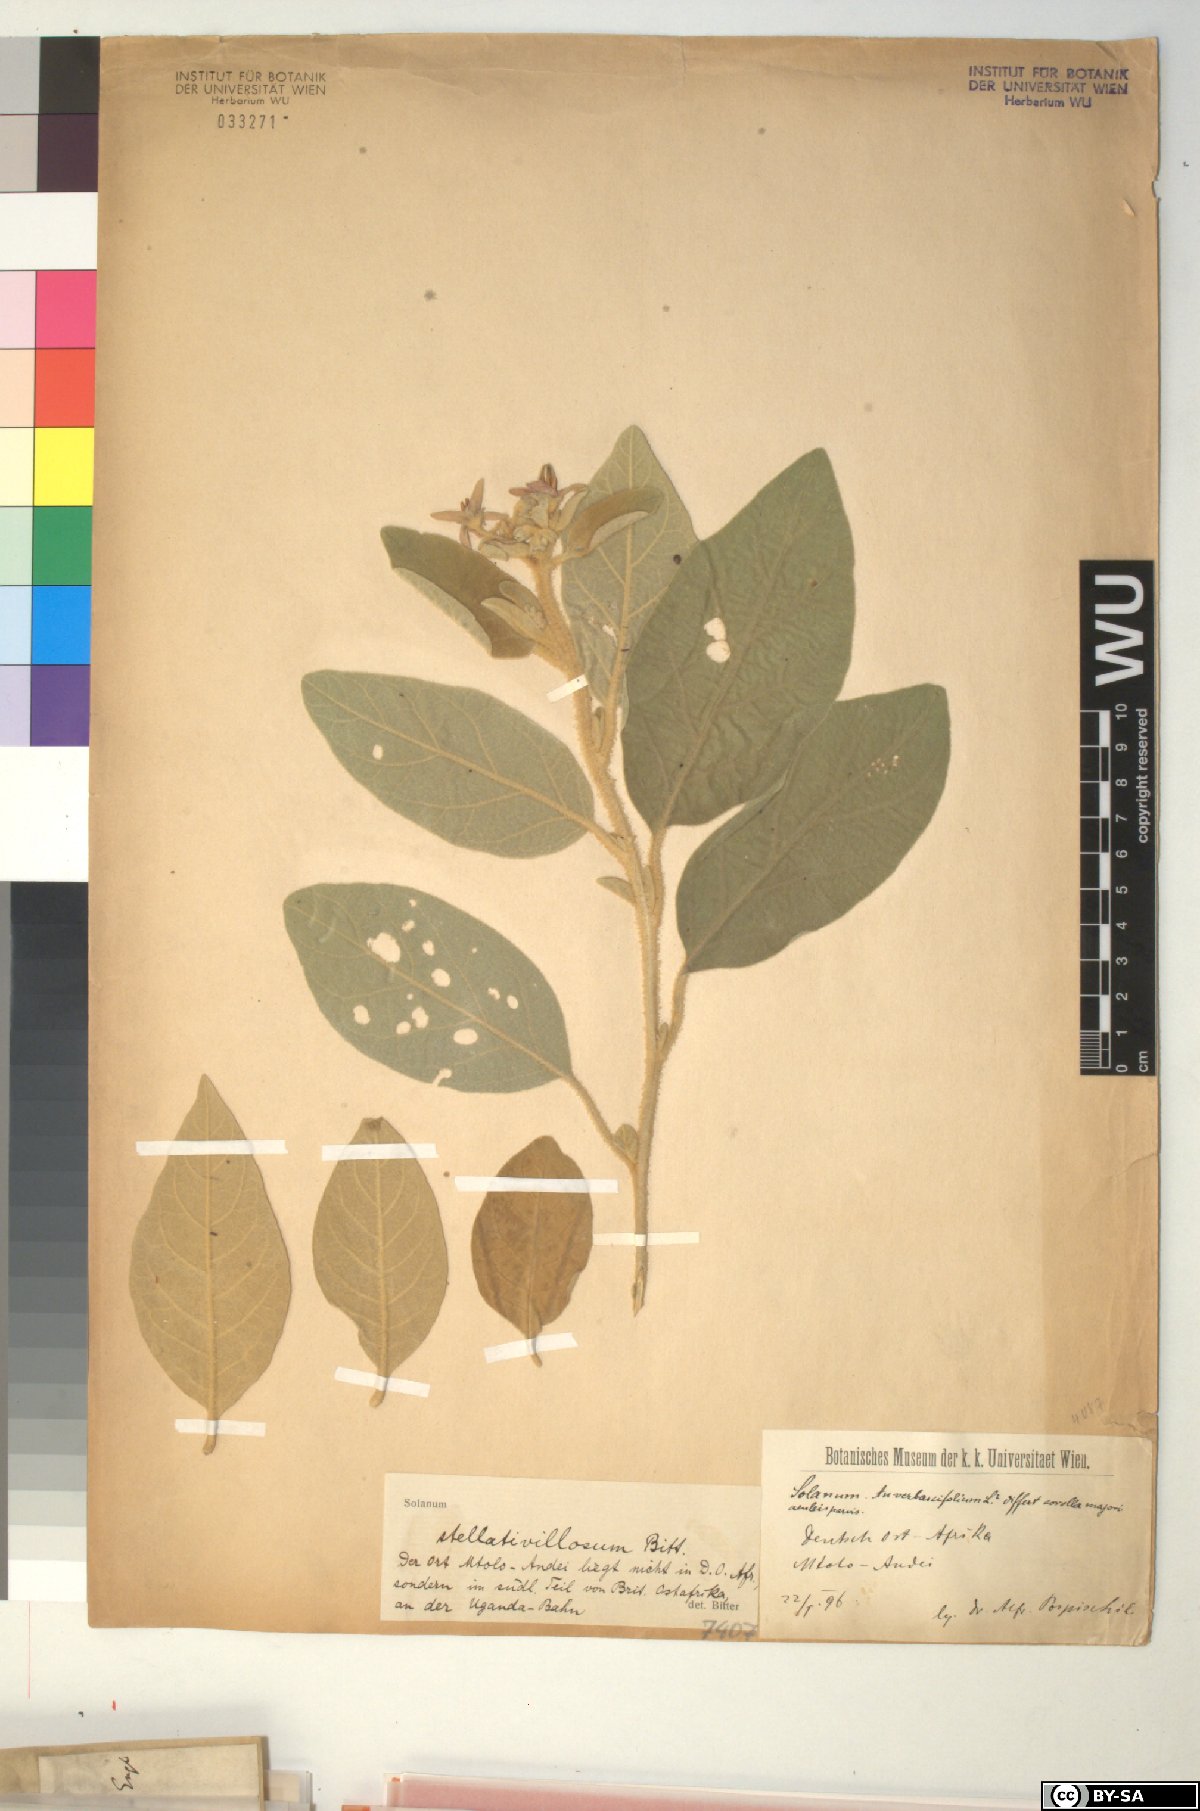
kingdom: Plantae
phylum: Tracheophyta
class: Magnoliopsida
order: Solanales
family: Solanaceae
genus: Solanum
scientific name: Solanum campylacanthum
